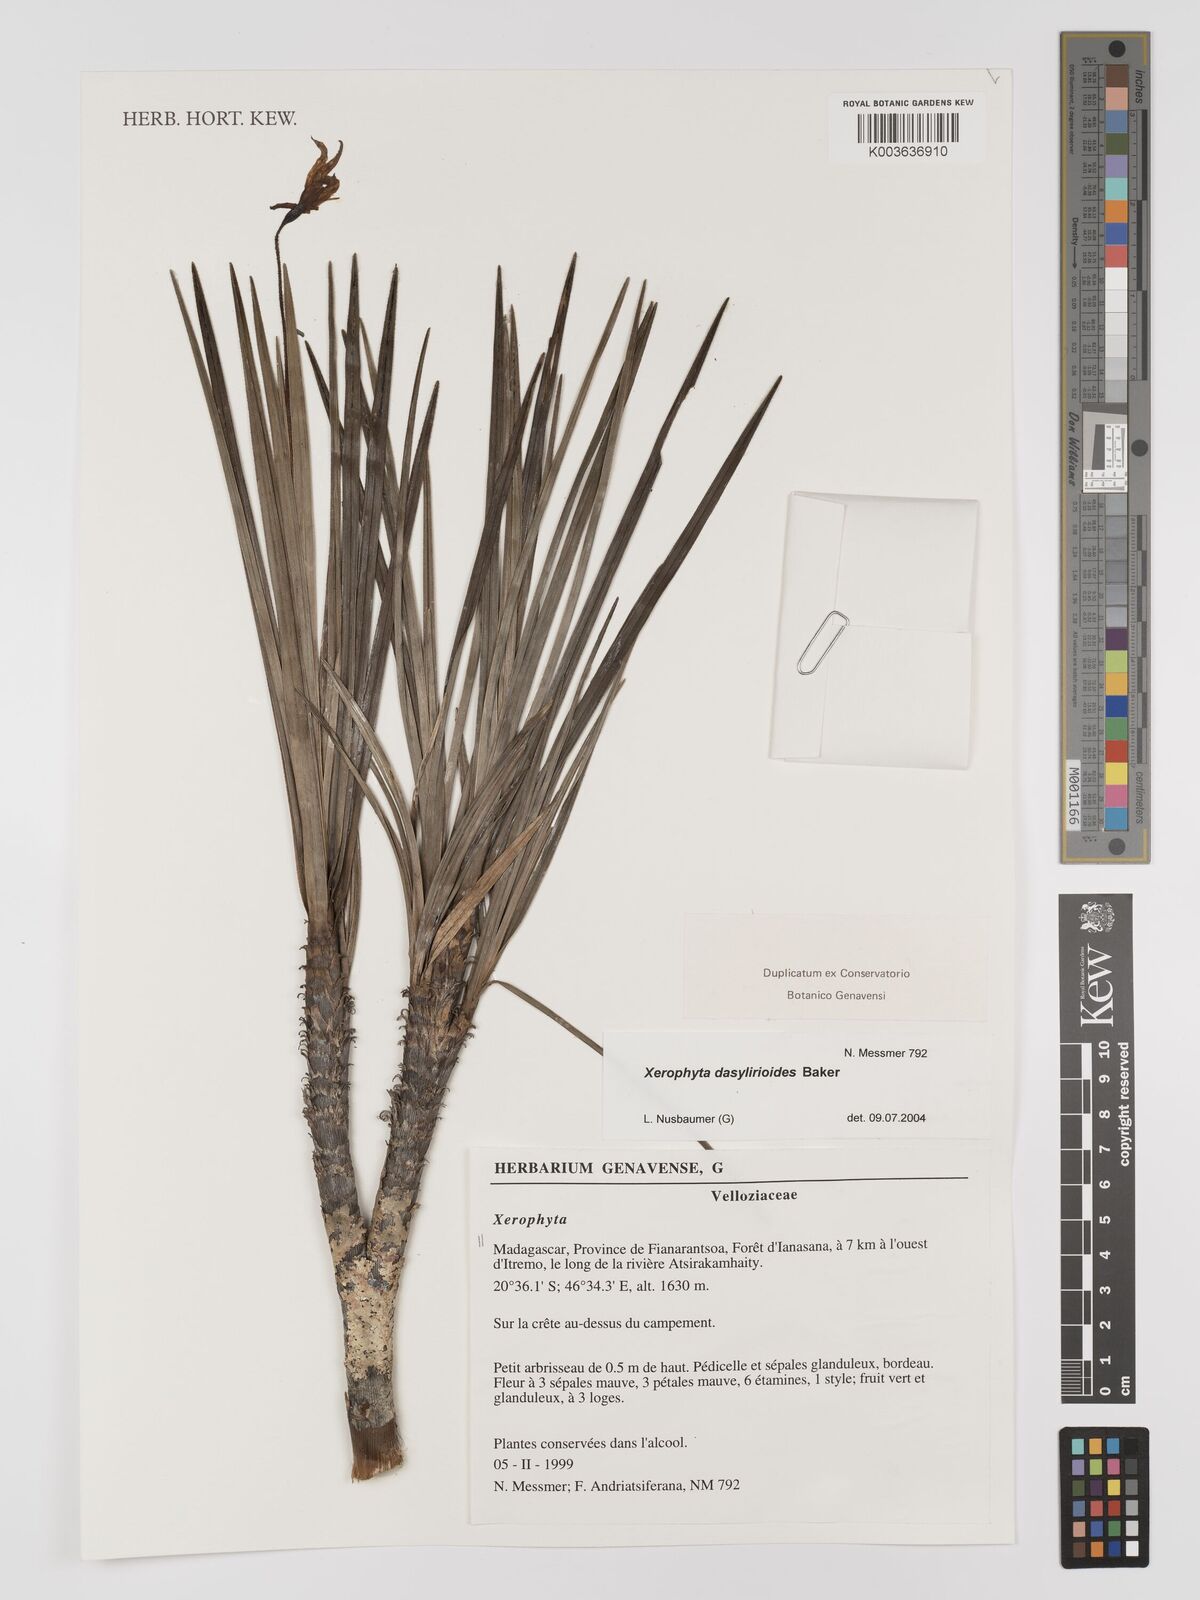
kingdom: Plantae
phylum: Tracheophyta
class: Liliopsida
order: Pandanales
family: Velloziaceae
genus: Xerophyta
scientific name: Xerophyta dasylirioides
